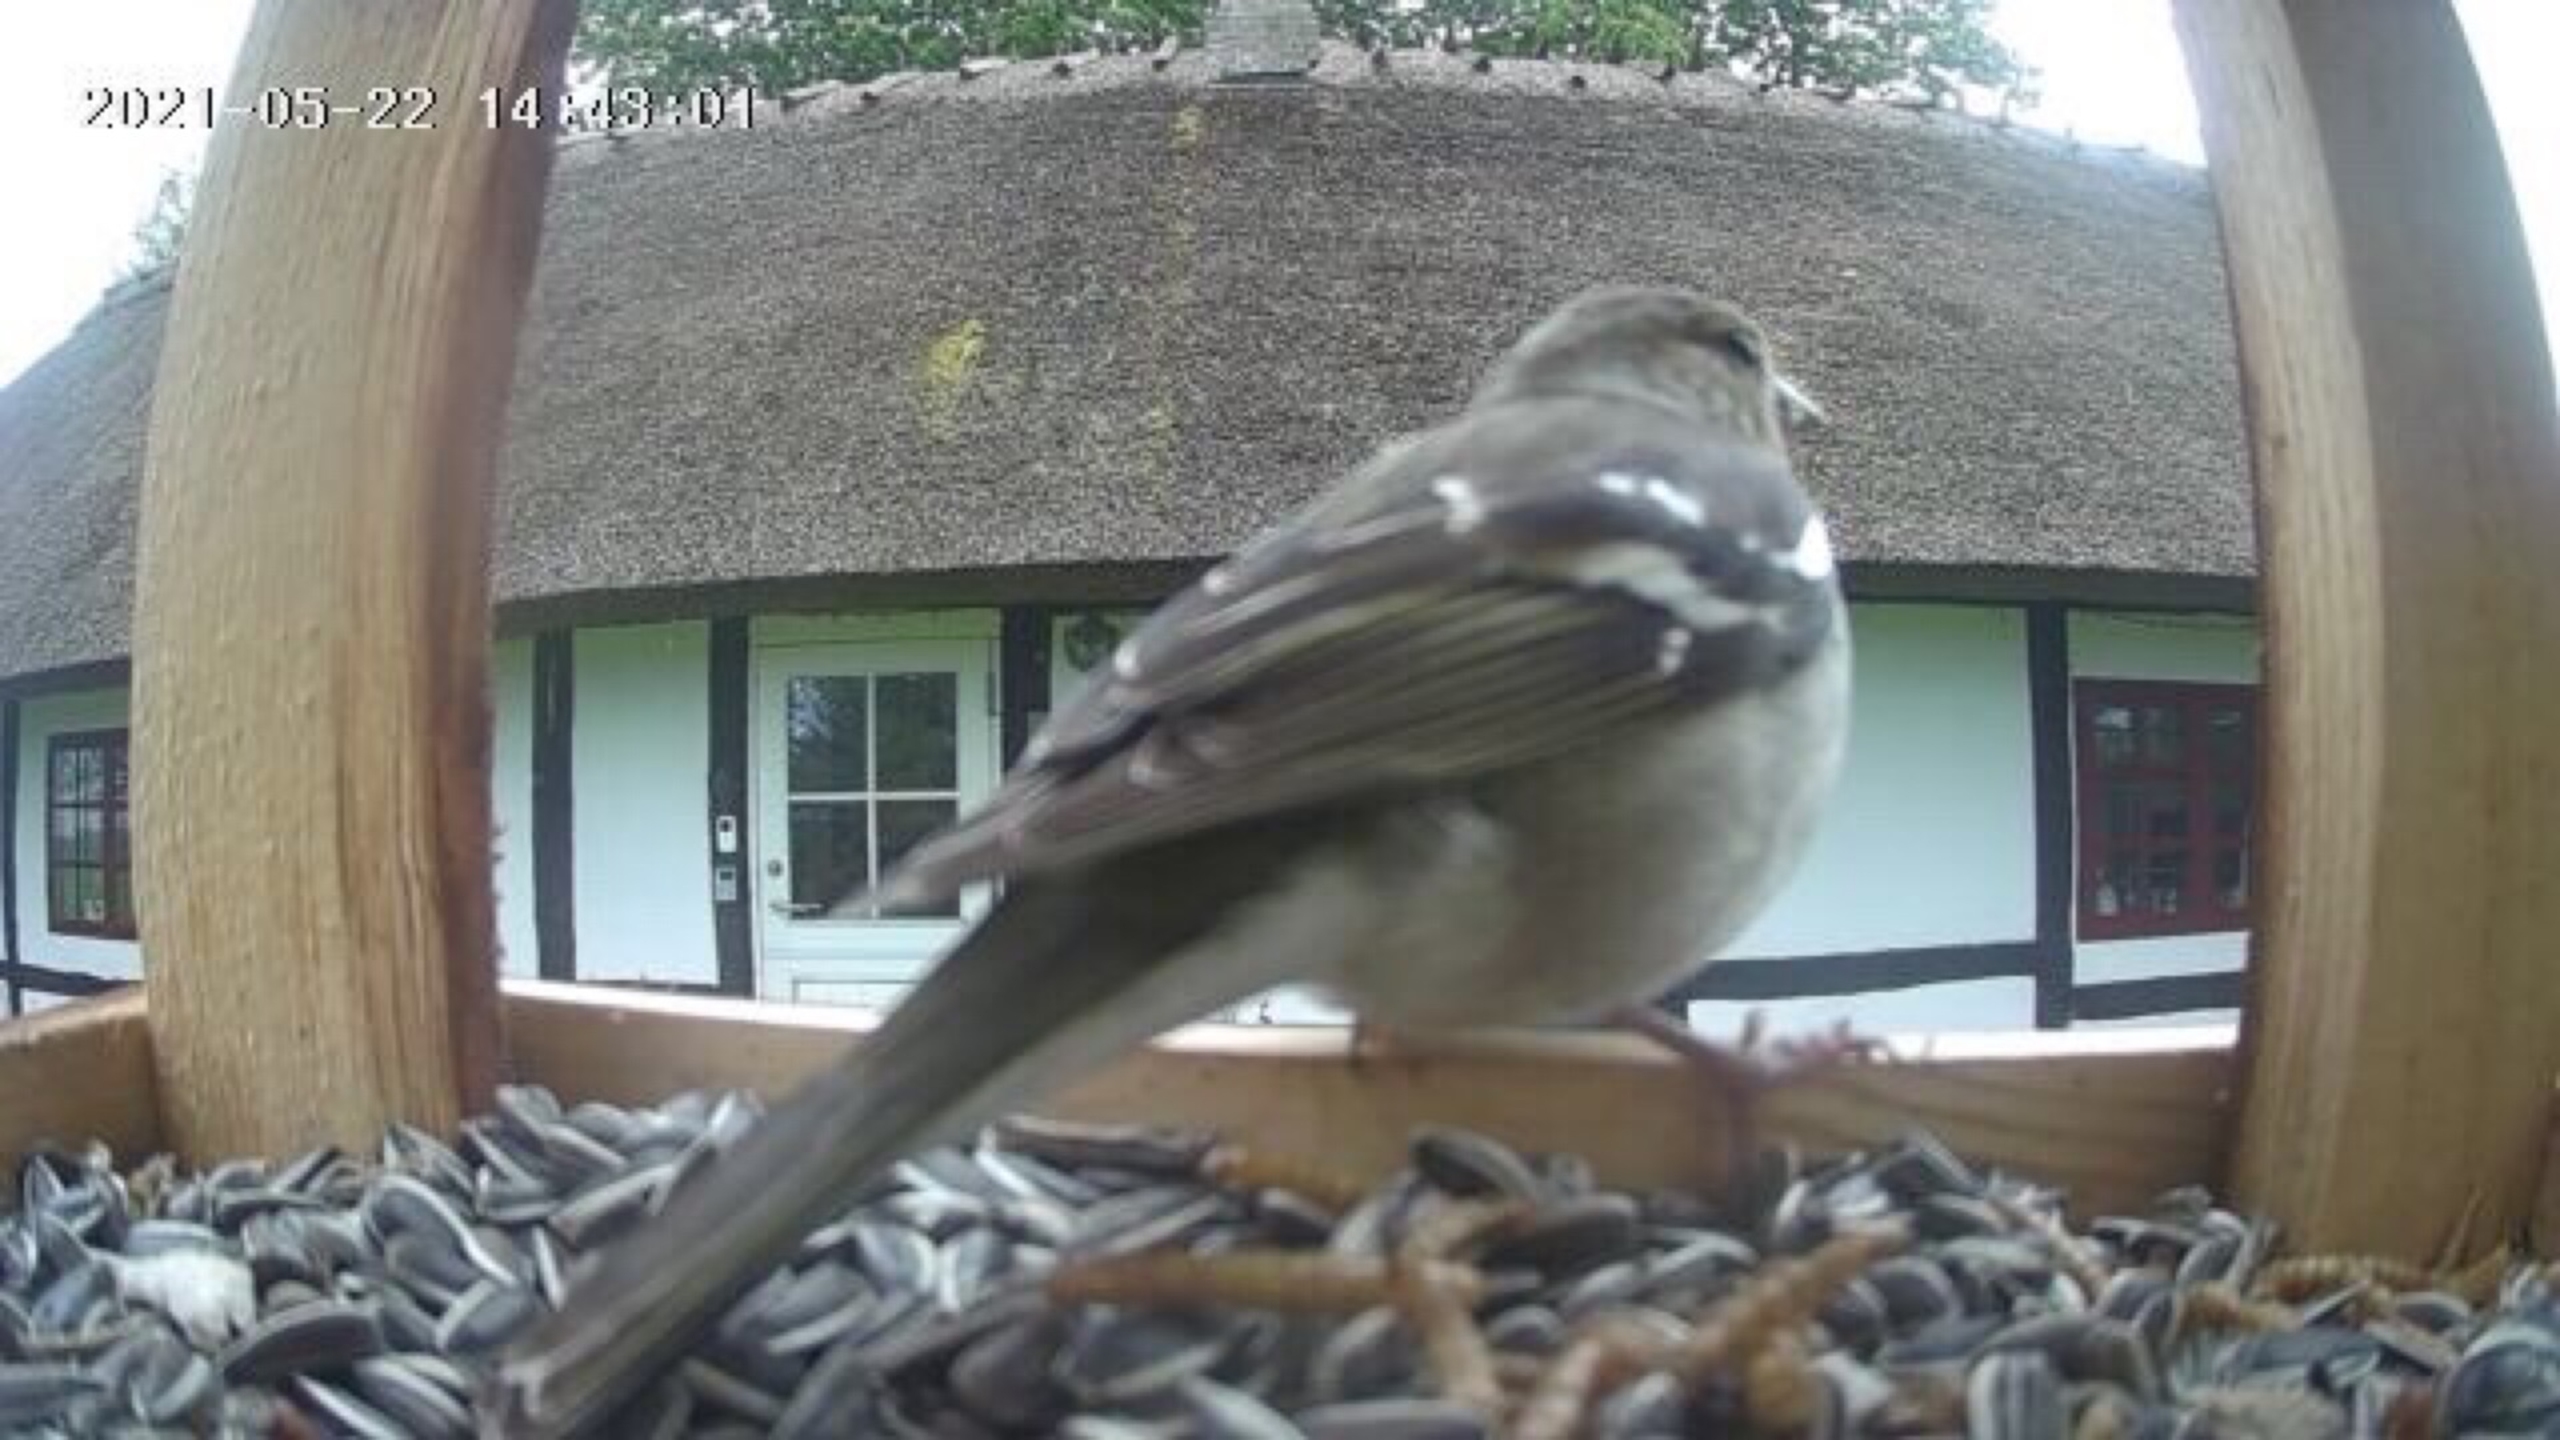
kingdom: Animalia
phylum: Chordata
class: Aves
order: Passeriformes
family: Fringillidae
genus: Fringilla
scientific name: Fringilla coelebs
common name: Bogfinke
